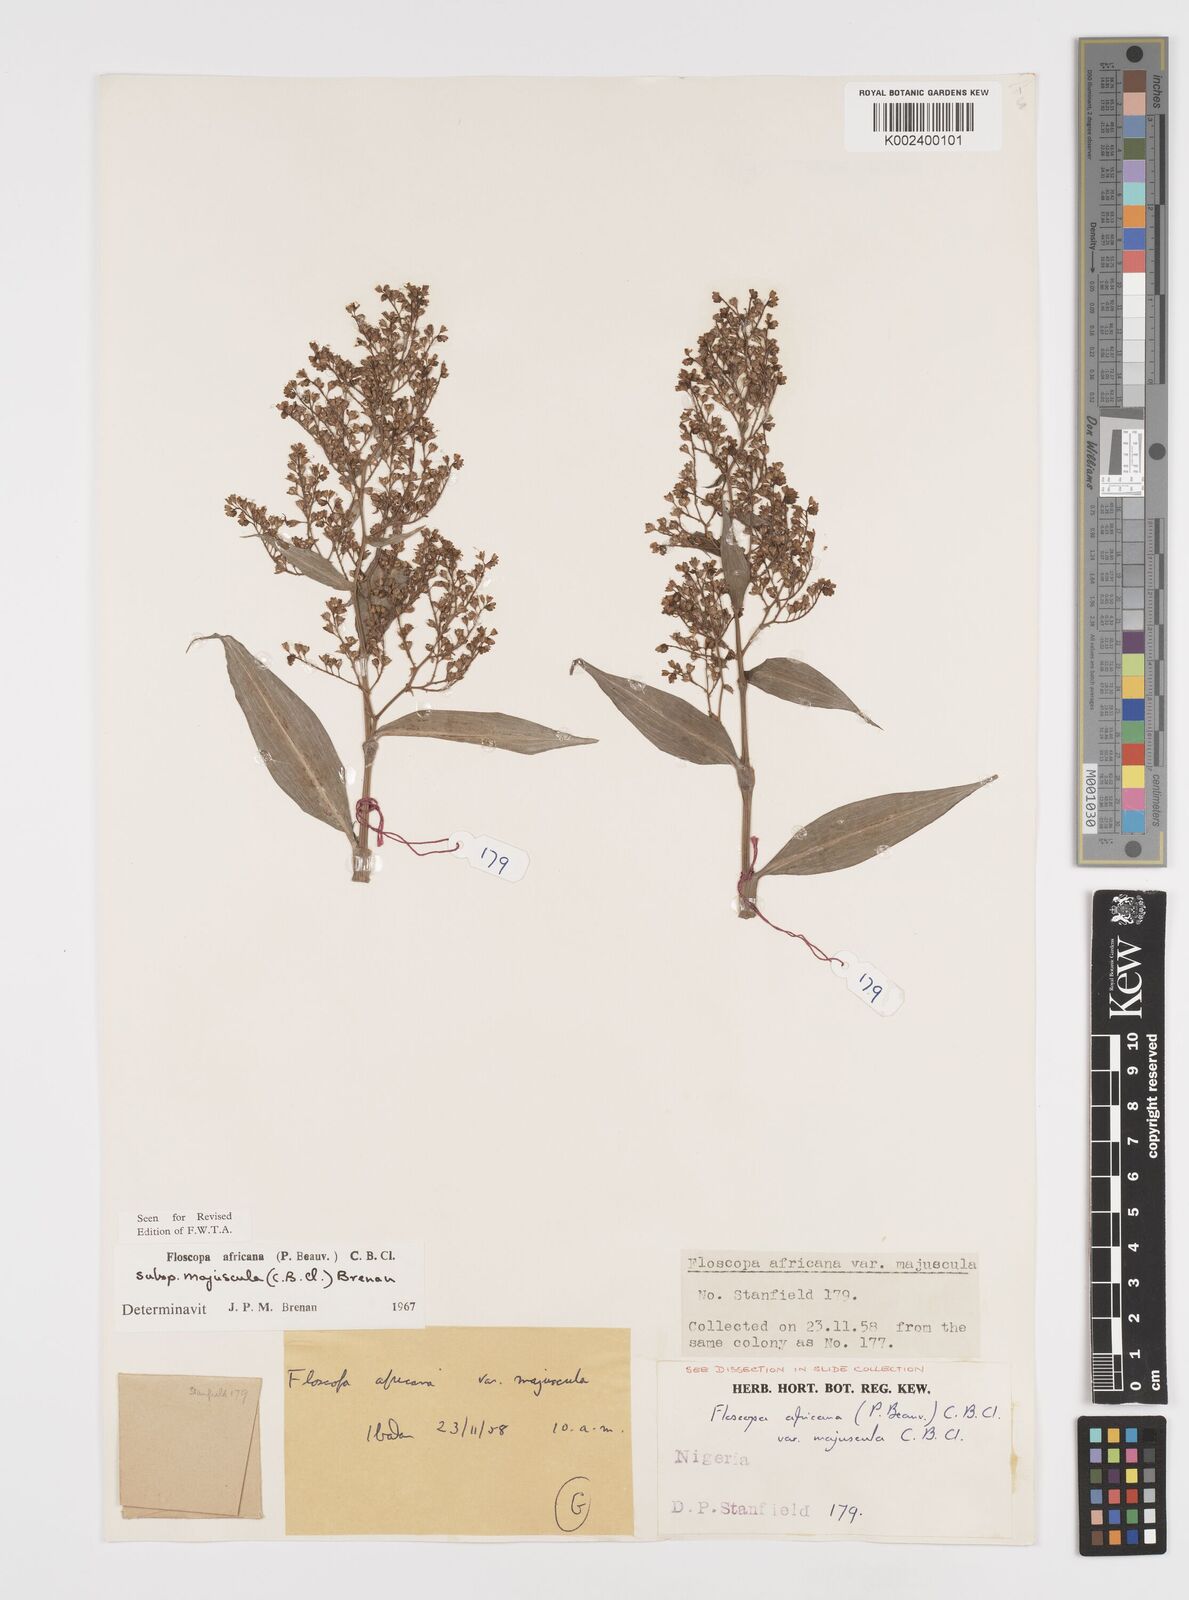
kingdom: Plantae
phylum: Tracheophyta
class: Liliopsida
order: Commelinales
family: Commelinaceae
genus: Floscopa
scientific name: Floscopa africana
